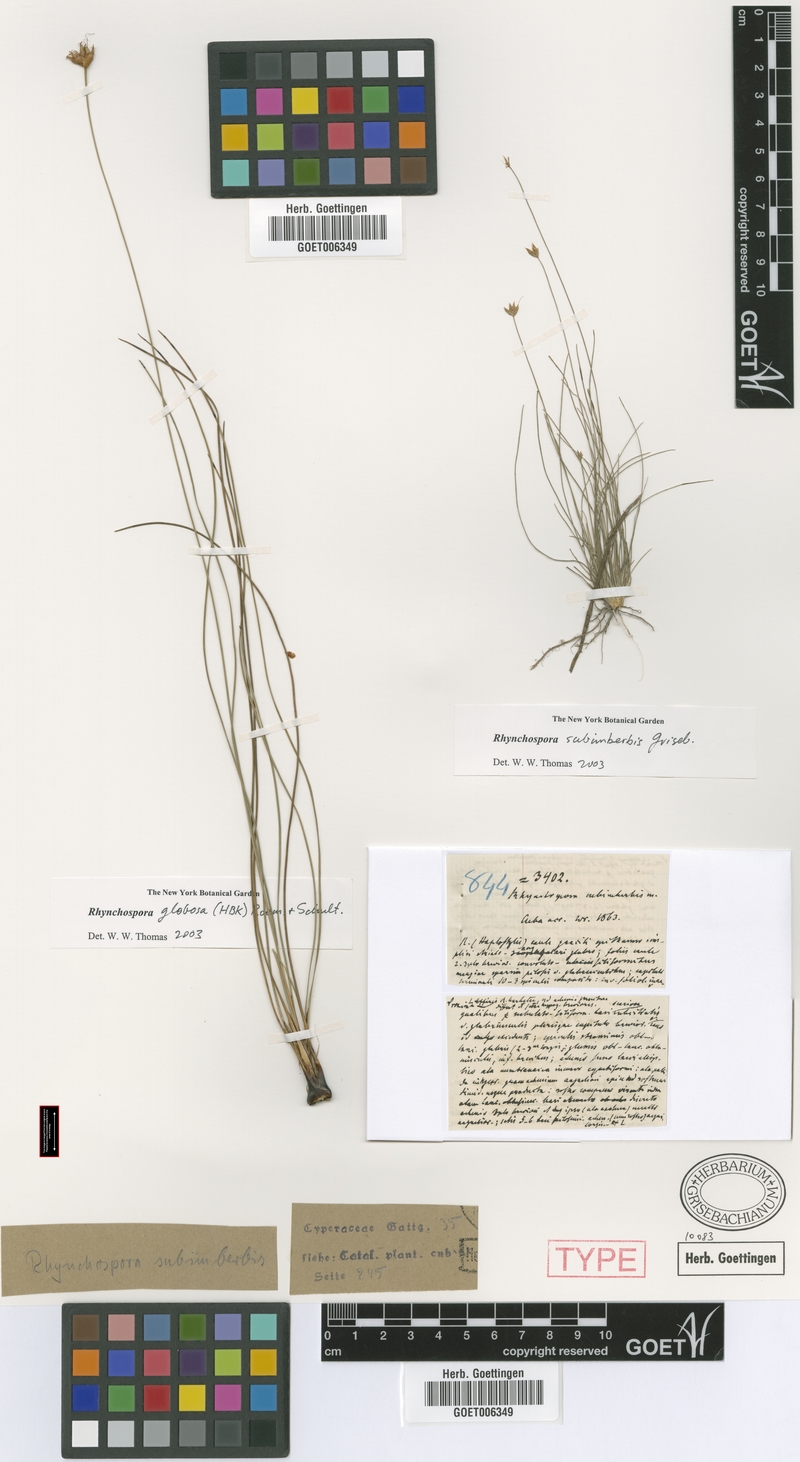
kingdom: Plantae
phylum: Tracheophyta
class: Liliopsida
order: Poales
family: Cyperaceae
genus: Rhynchospora
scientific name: Rhynchospora subimberbis
